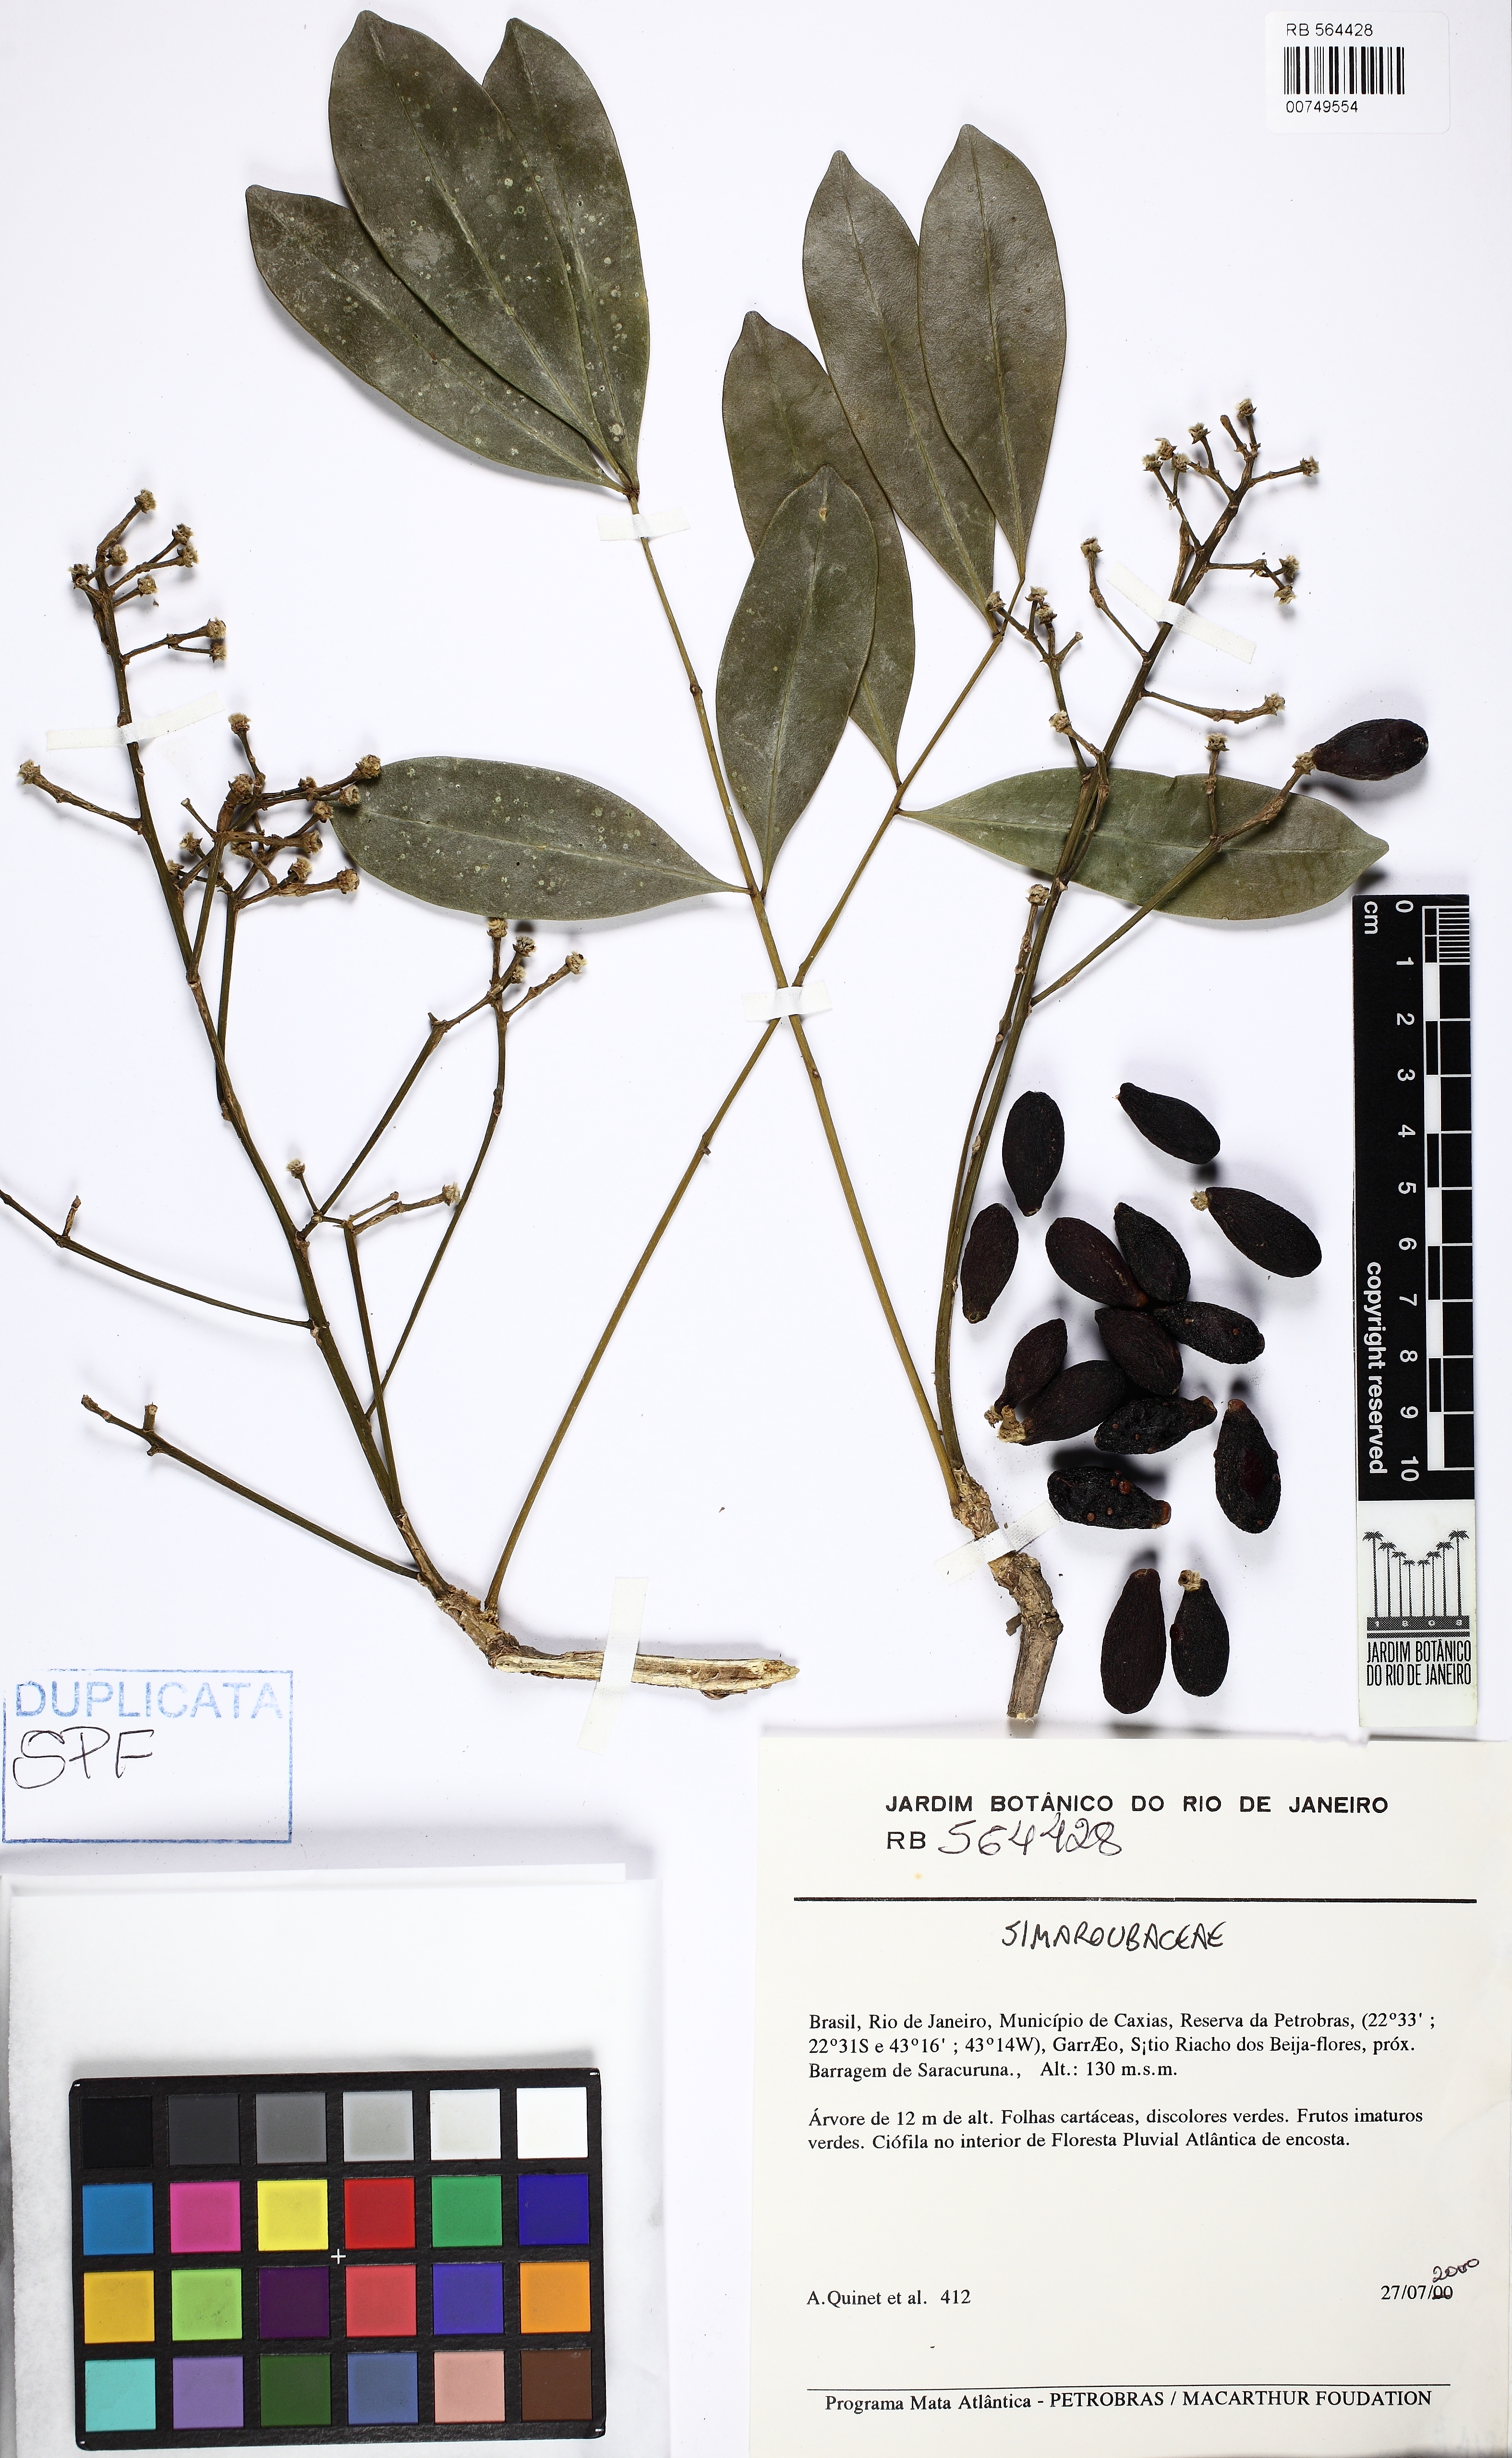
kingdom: Plantae
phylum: Tracheophyta
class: Magnoliopsida
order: Sapindales
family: Simaroubaceae
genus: Homalolepis
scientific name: Homalolepis subcymosa
